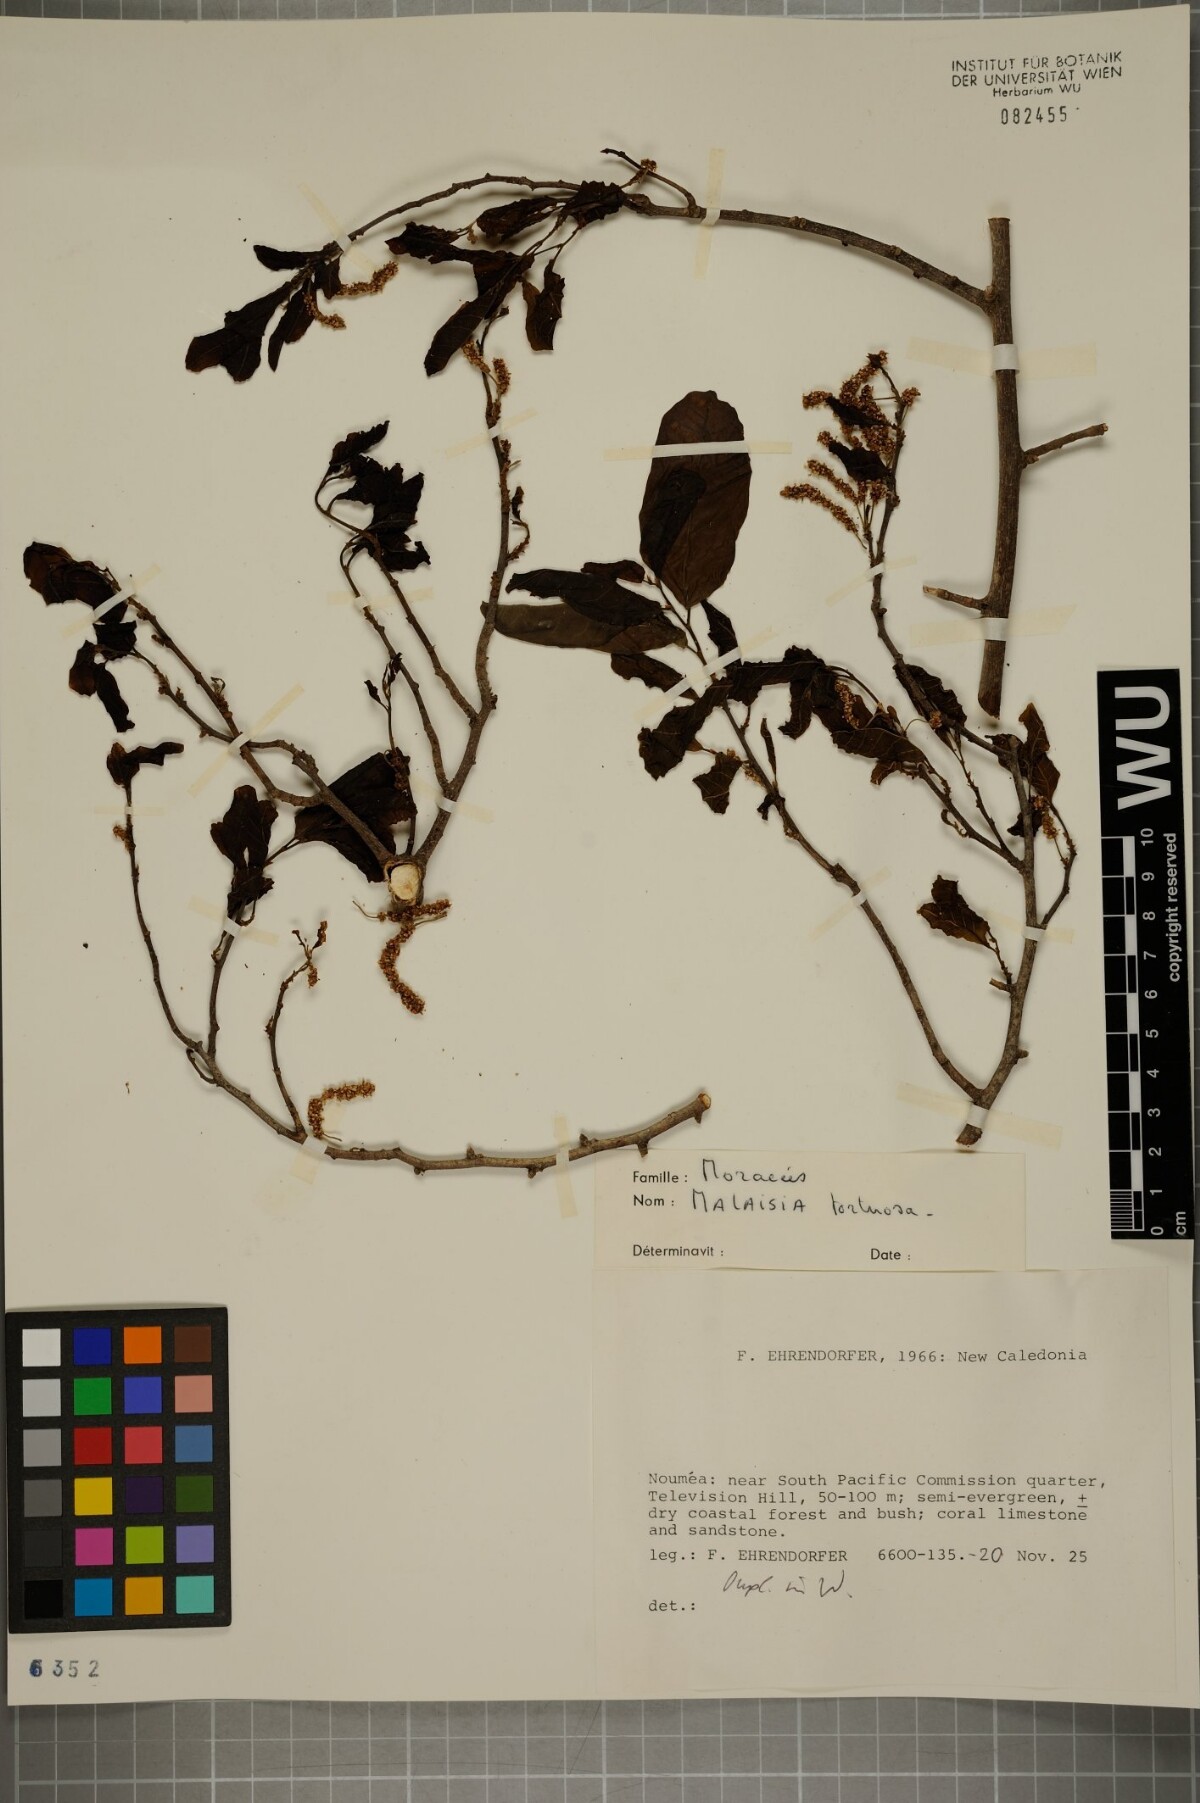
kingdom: Plantae
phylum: Tracheophyta
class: Magnoliopsida
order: Rosales
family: Moraceae
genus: Malaisia
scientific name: Malaisia scandens
